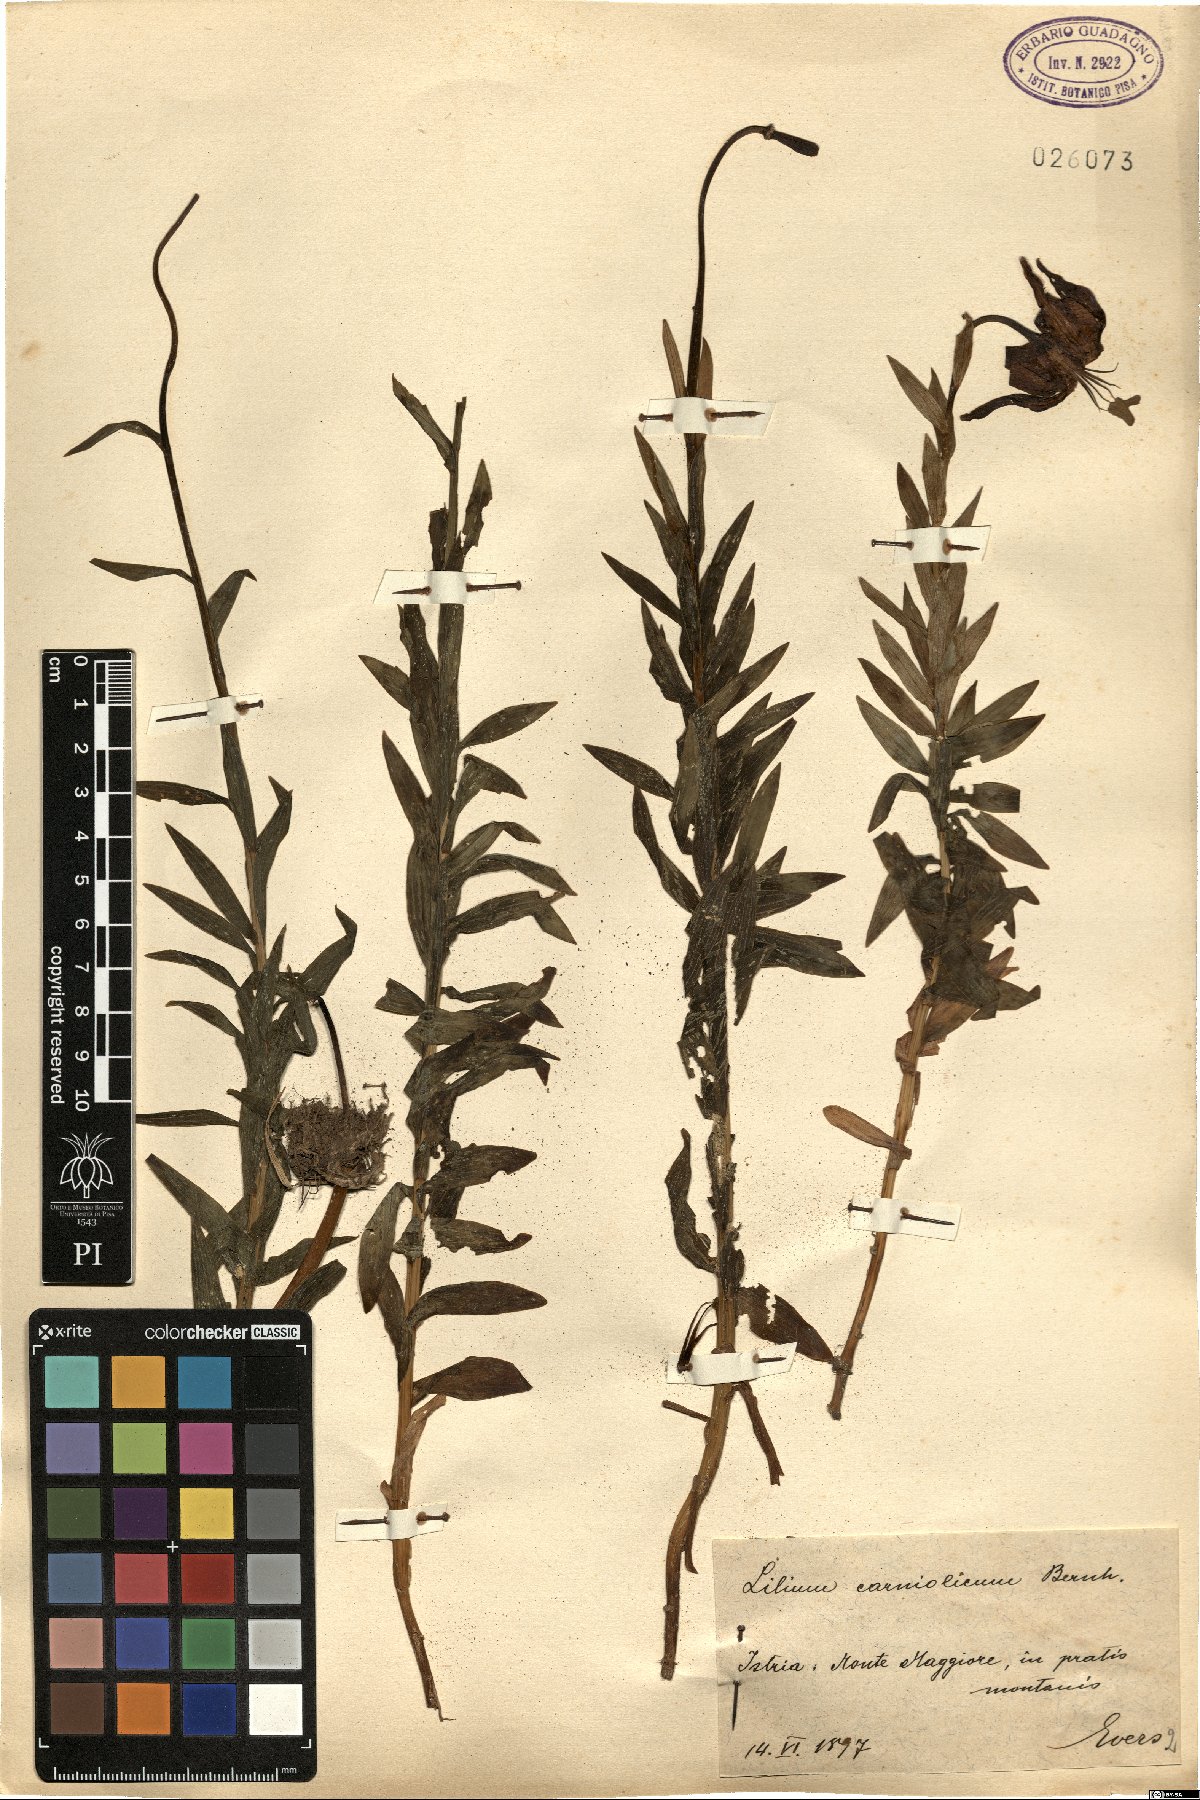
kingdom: Plantae
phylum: Tracheophyta
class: Liliopsida
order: Liliales
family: Liliaceae
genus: Lilium
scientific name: Lilium carniolicum
